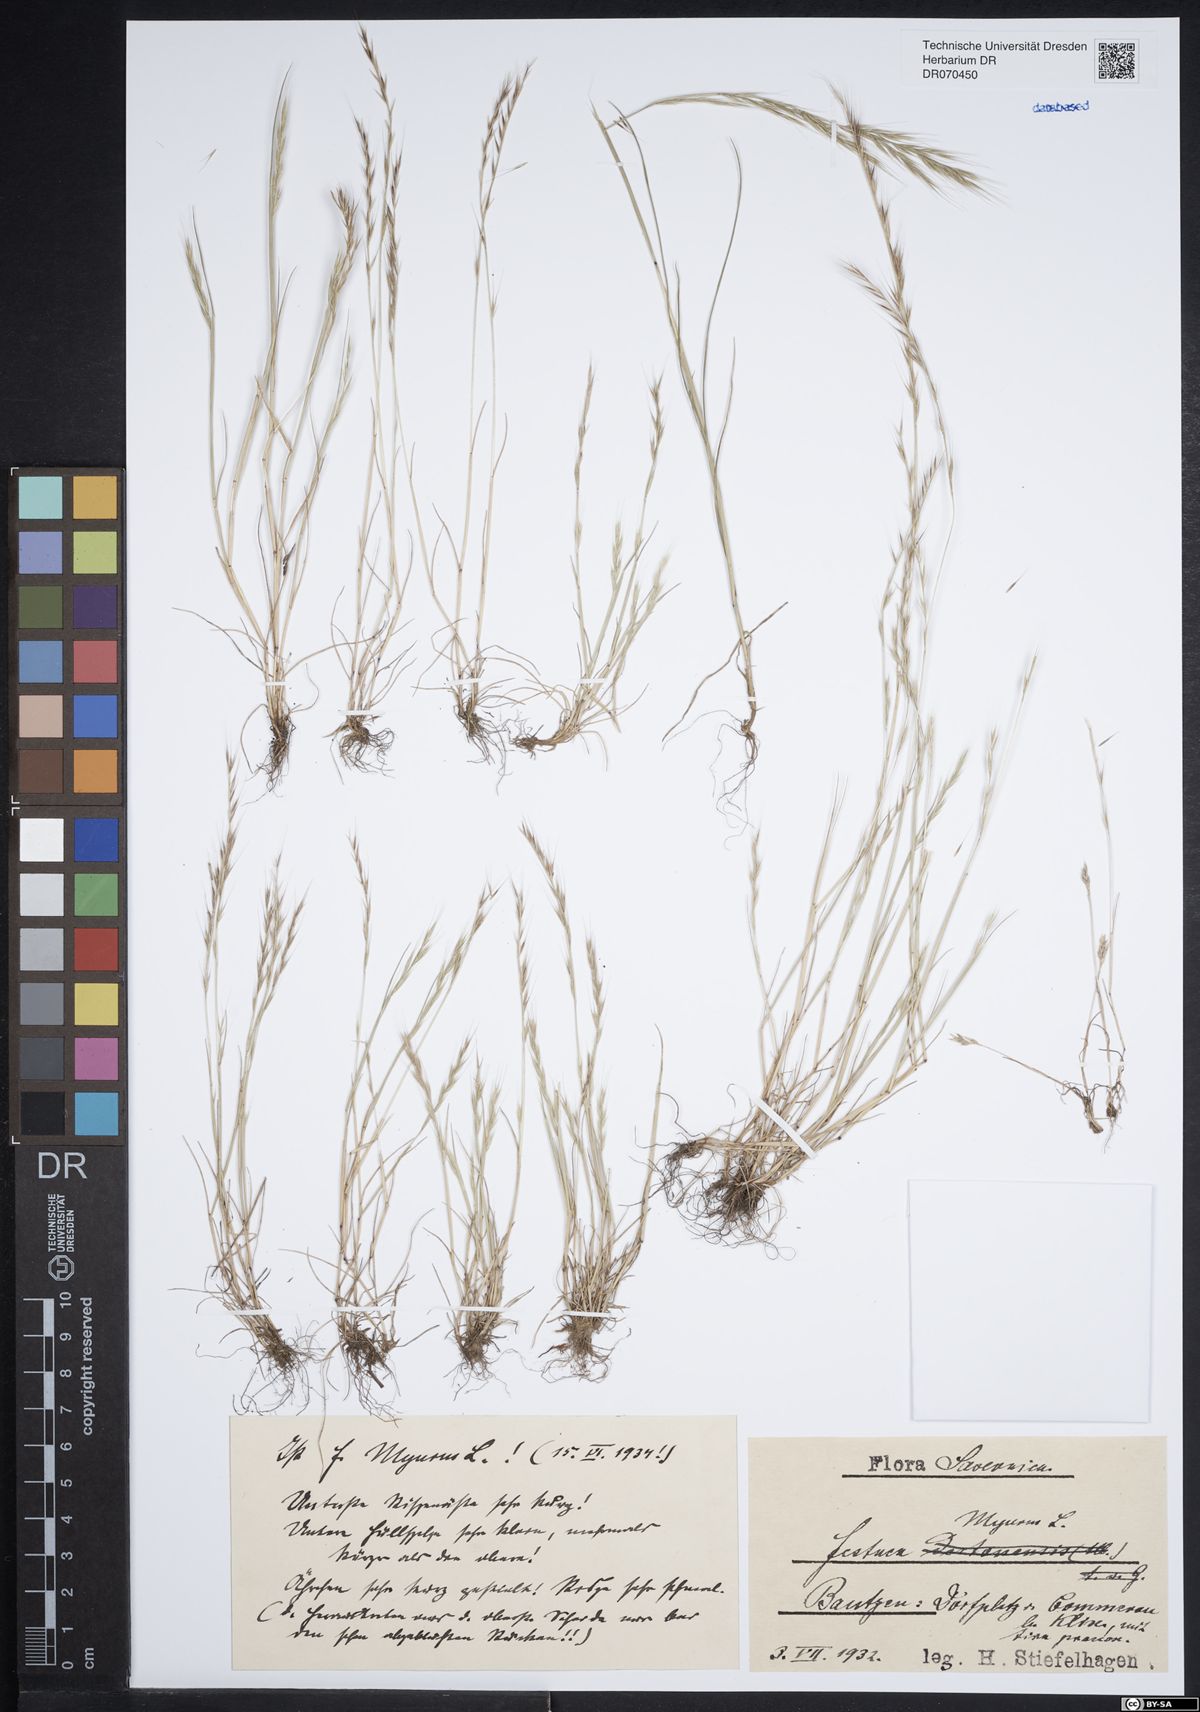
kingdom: Plantae
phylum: Tracheophyta
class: Liliopsida
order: Poales
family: Poaceae
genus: Festuca
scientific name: Festuca myuros
